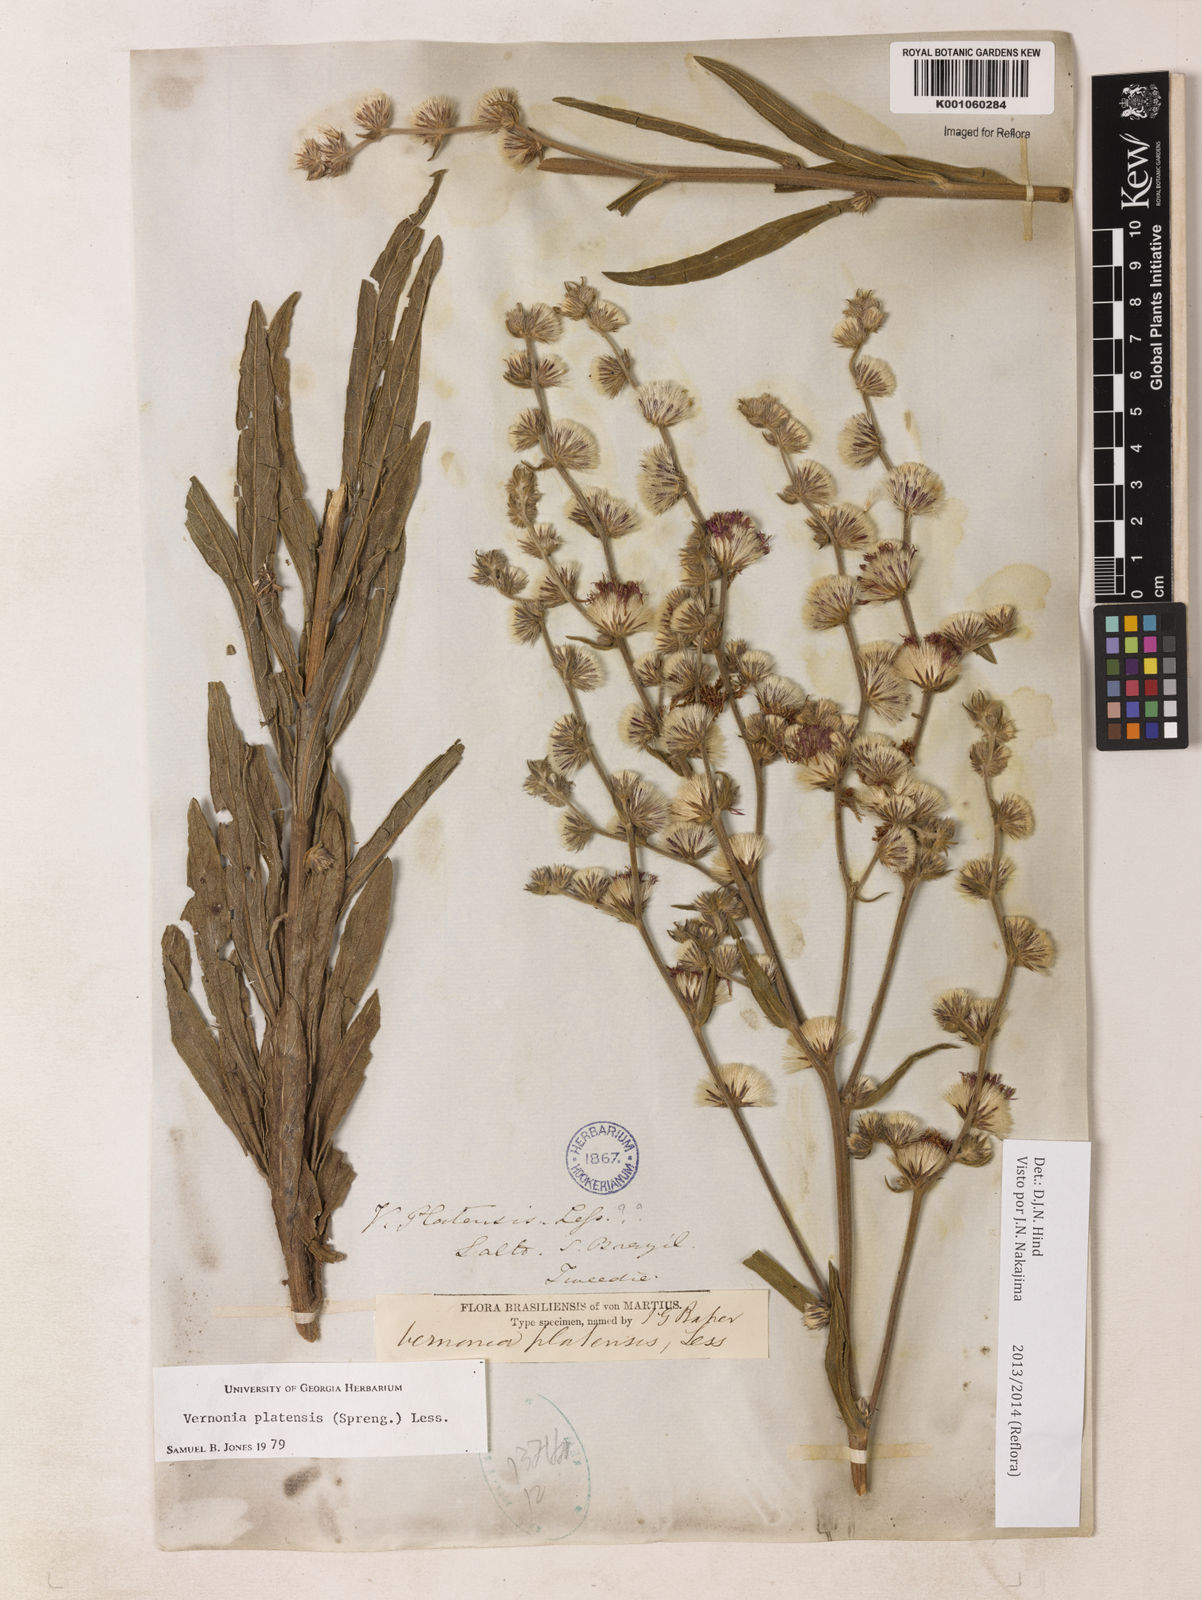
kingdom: Plantae
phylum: Tracheophyta
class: Magnoliopsida
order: Asterales
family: Asteraceae
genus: Chrysolaena
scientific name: Chrysolaena platensis
